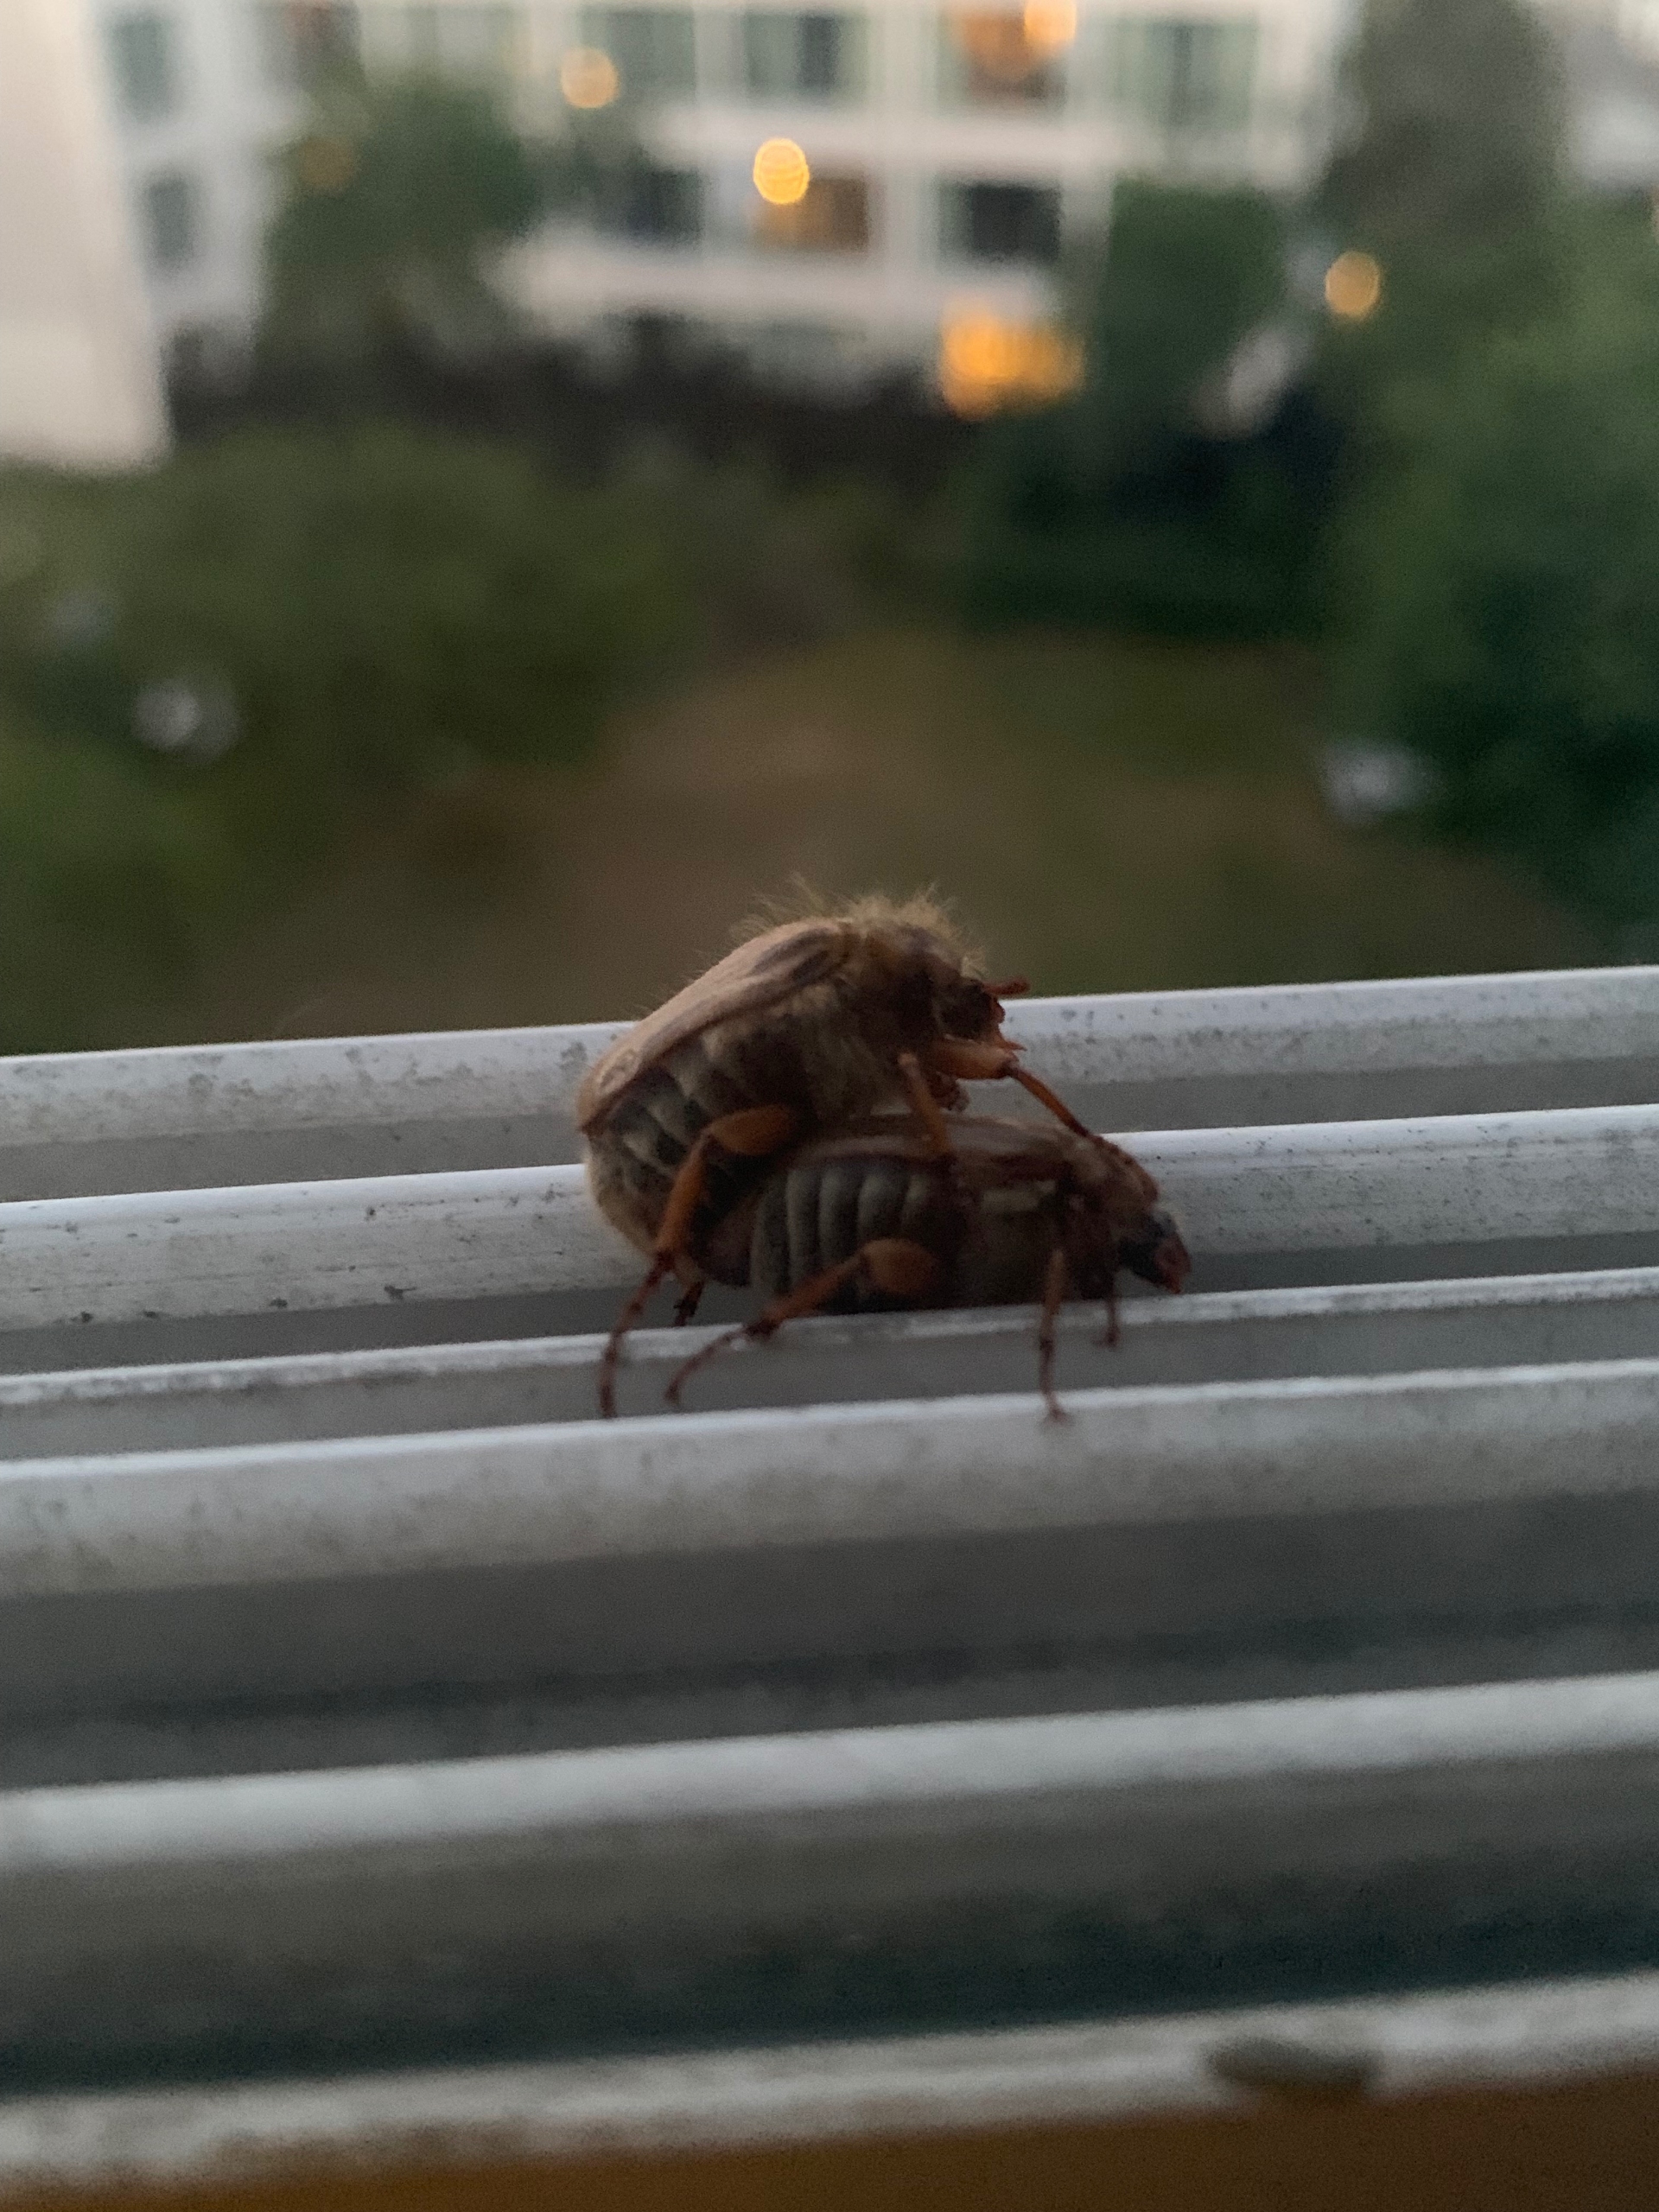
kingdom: Animalia
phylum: Arthropoda
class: Insecta
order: Coleoptera
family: Scarabaeidae
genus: Amphimallon
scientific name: Amphimallon solstitiale
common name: Sankthansoldenborre
